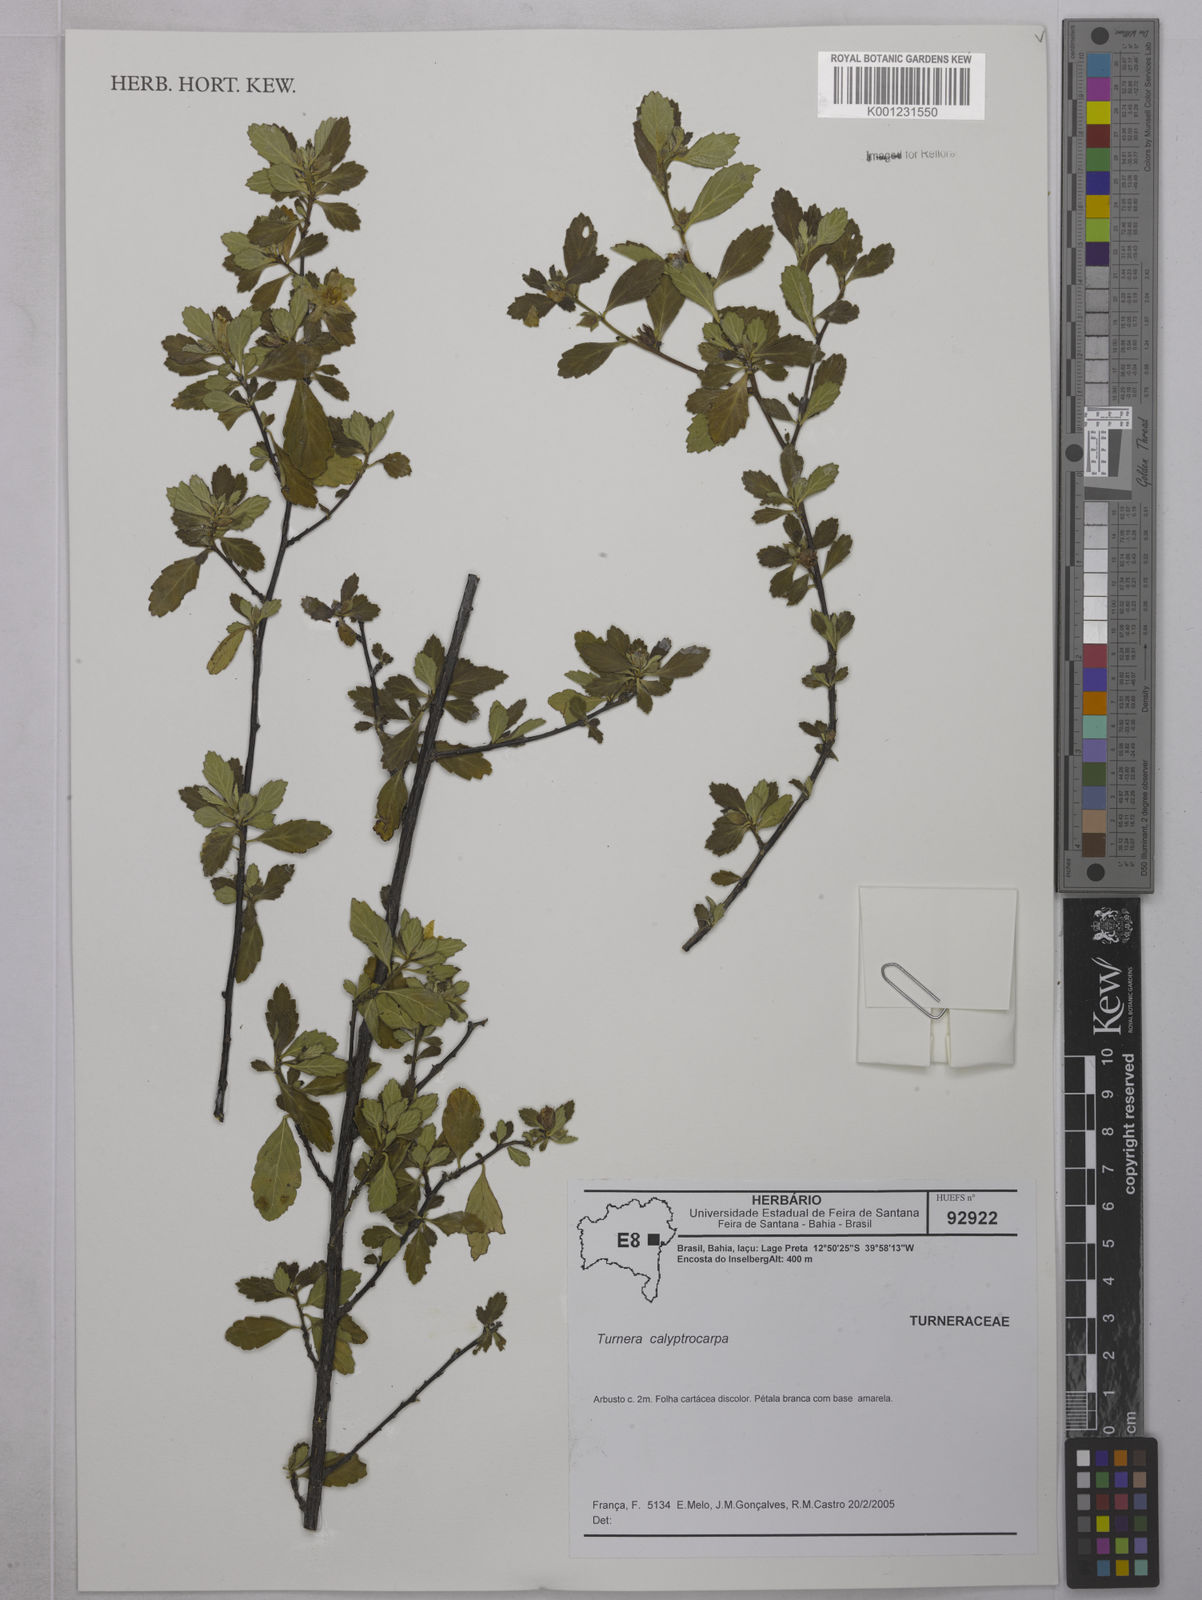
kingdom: Plantae
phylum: Tracheophyta
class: Magnoliopsida
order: Malpighiales
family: Turneraceae
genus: Oxossia
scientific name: Oxossia calyptrocarpa
